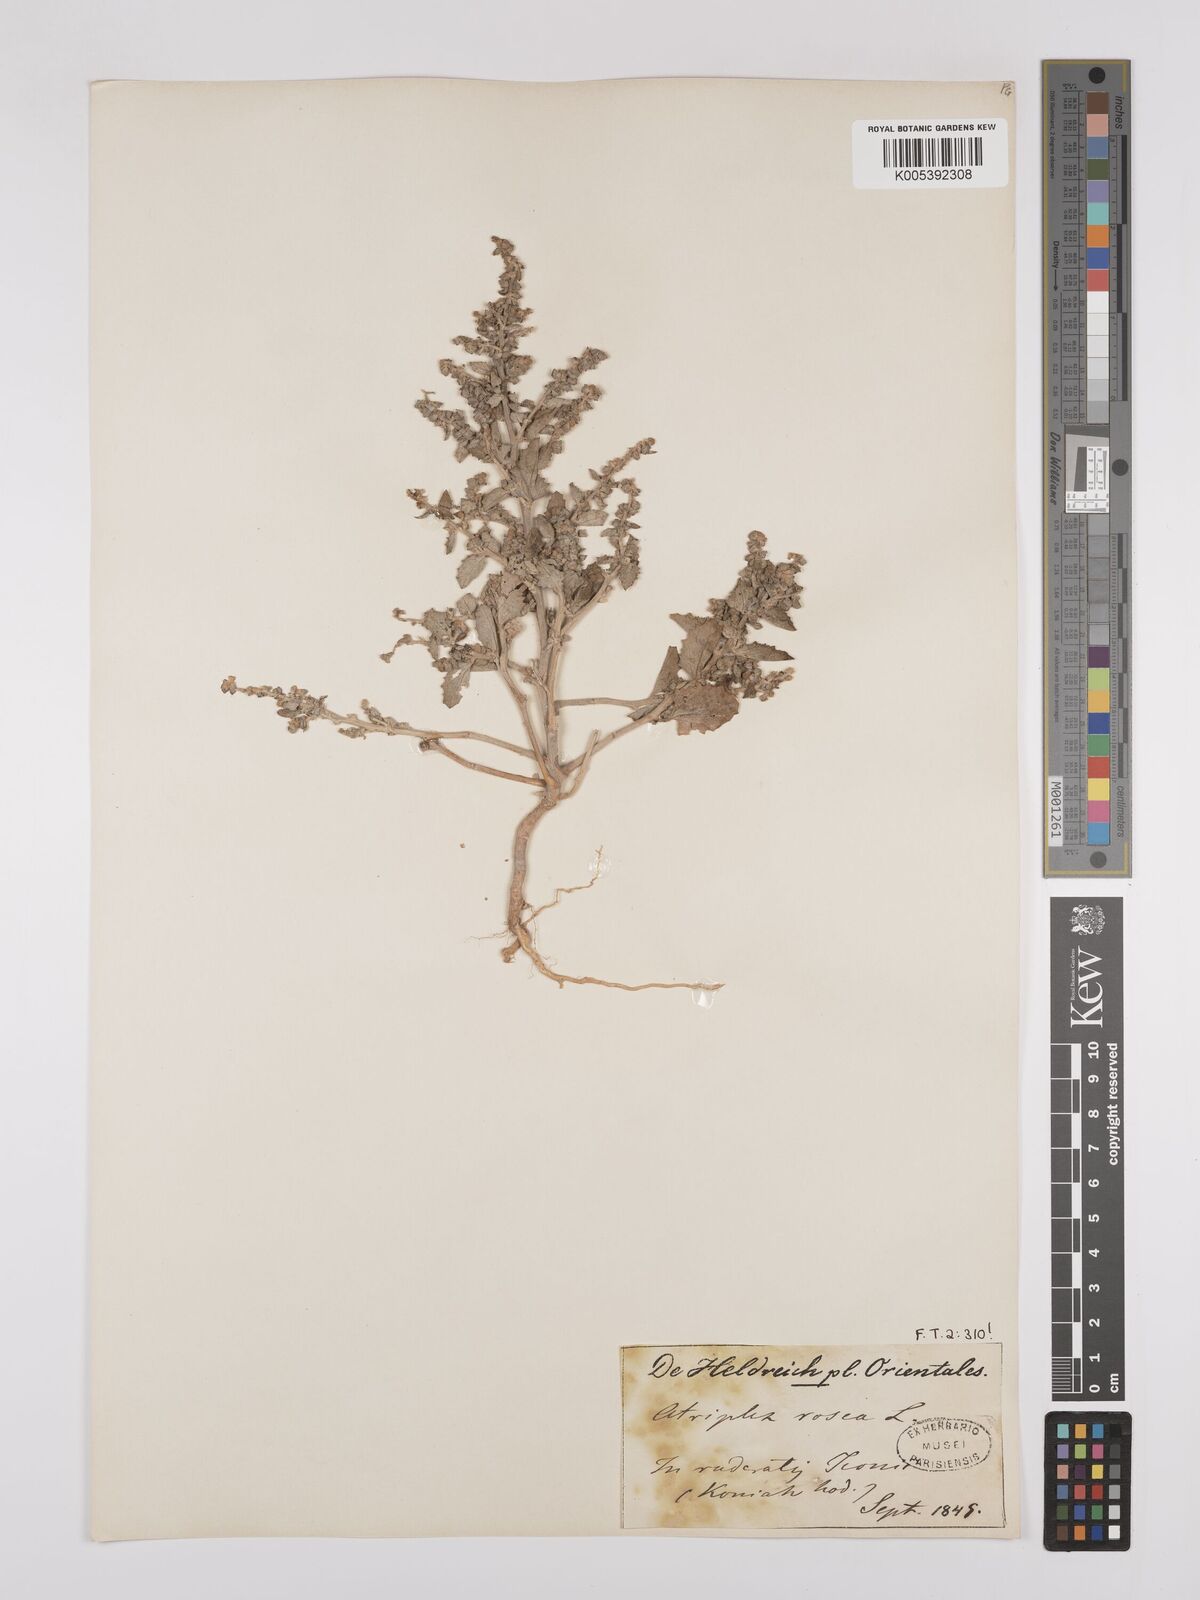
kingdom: Plantae
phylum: Tracheophyta
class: Magnoliopsida
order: Caryophyllales
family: Amaranthaceae
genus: Atriplex
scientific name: Atriplex
